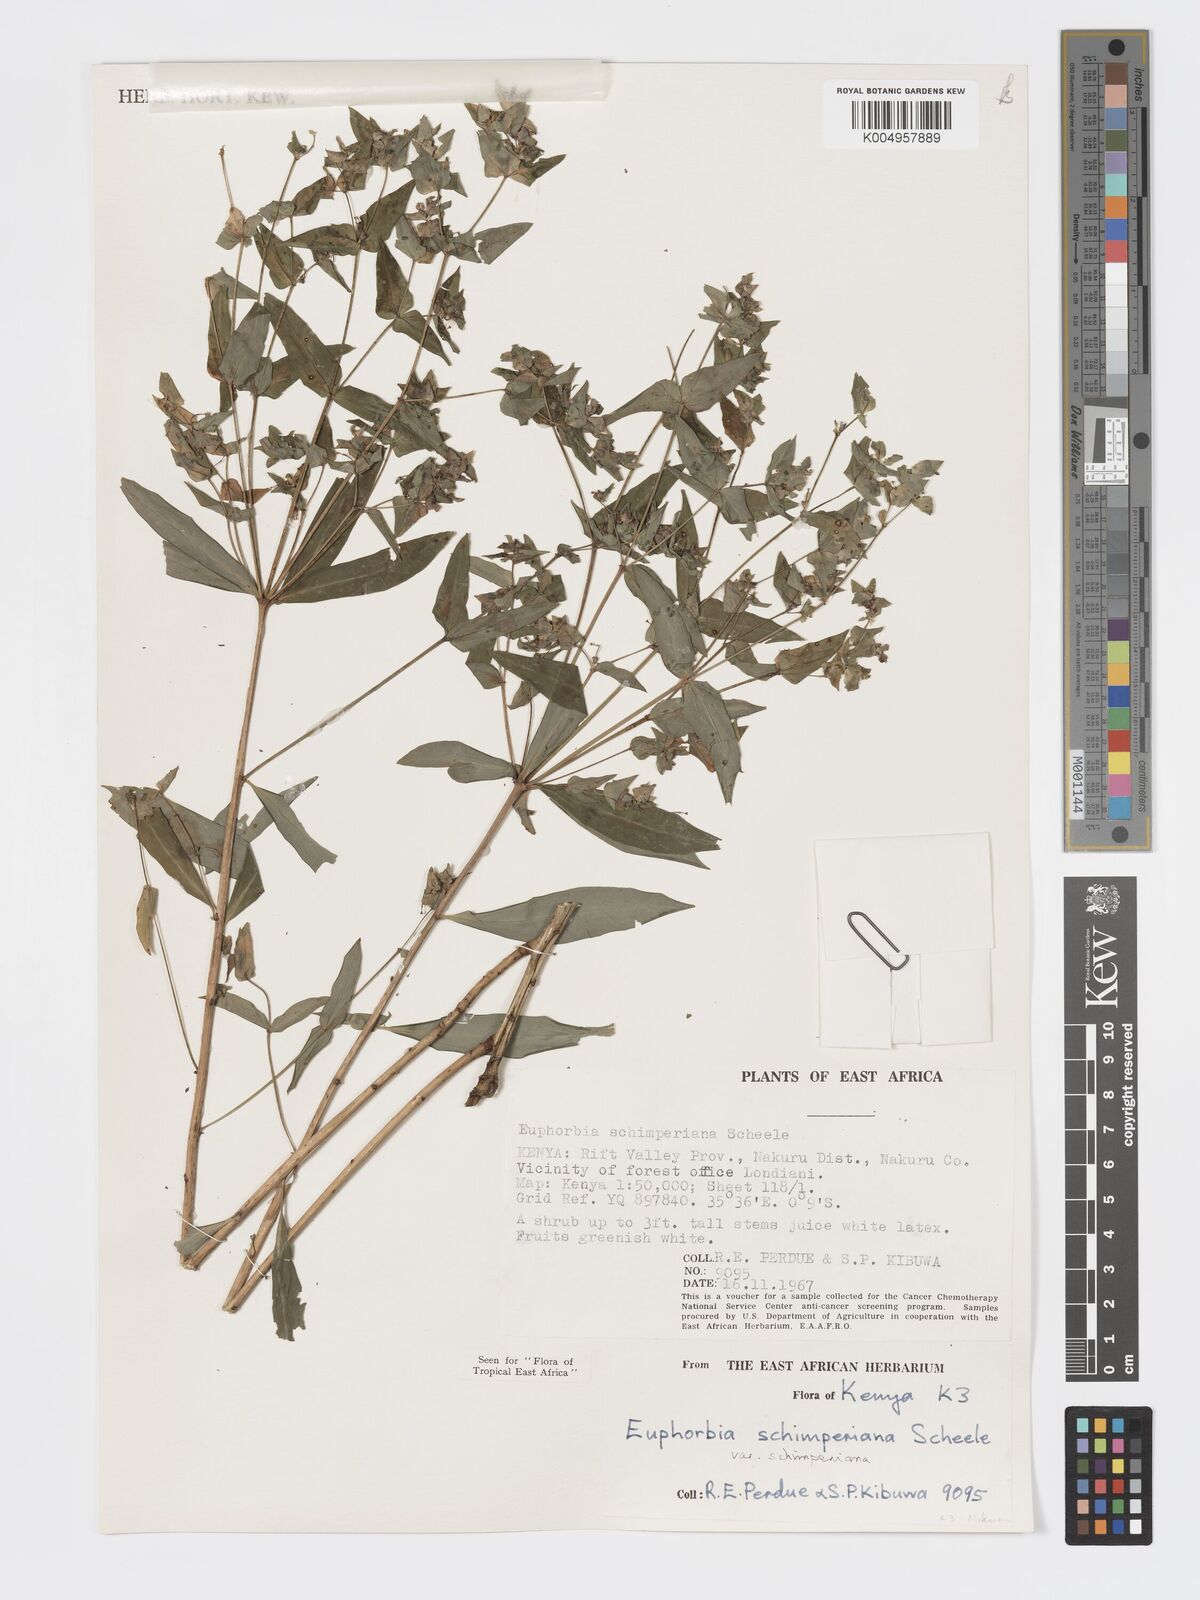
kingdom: Plantae
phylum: Tracheophyta
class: Magnoliopsida
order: Malpighiales
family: Euphorbiaceae
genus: Euphorbia
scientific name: Euphorbia schimperiana
